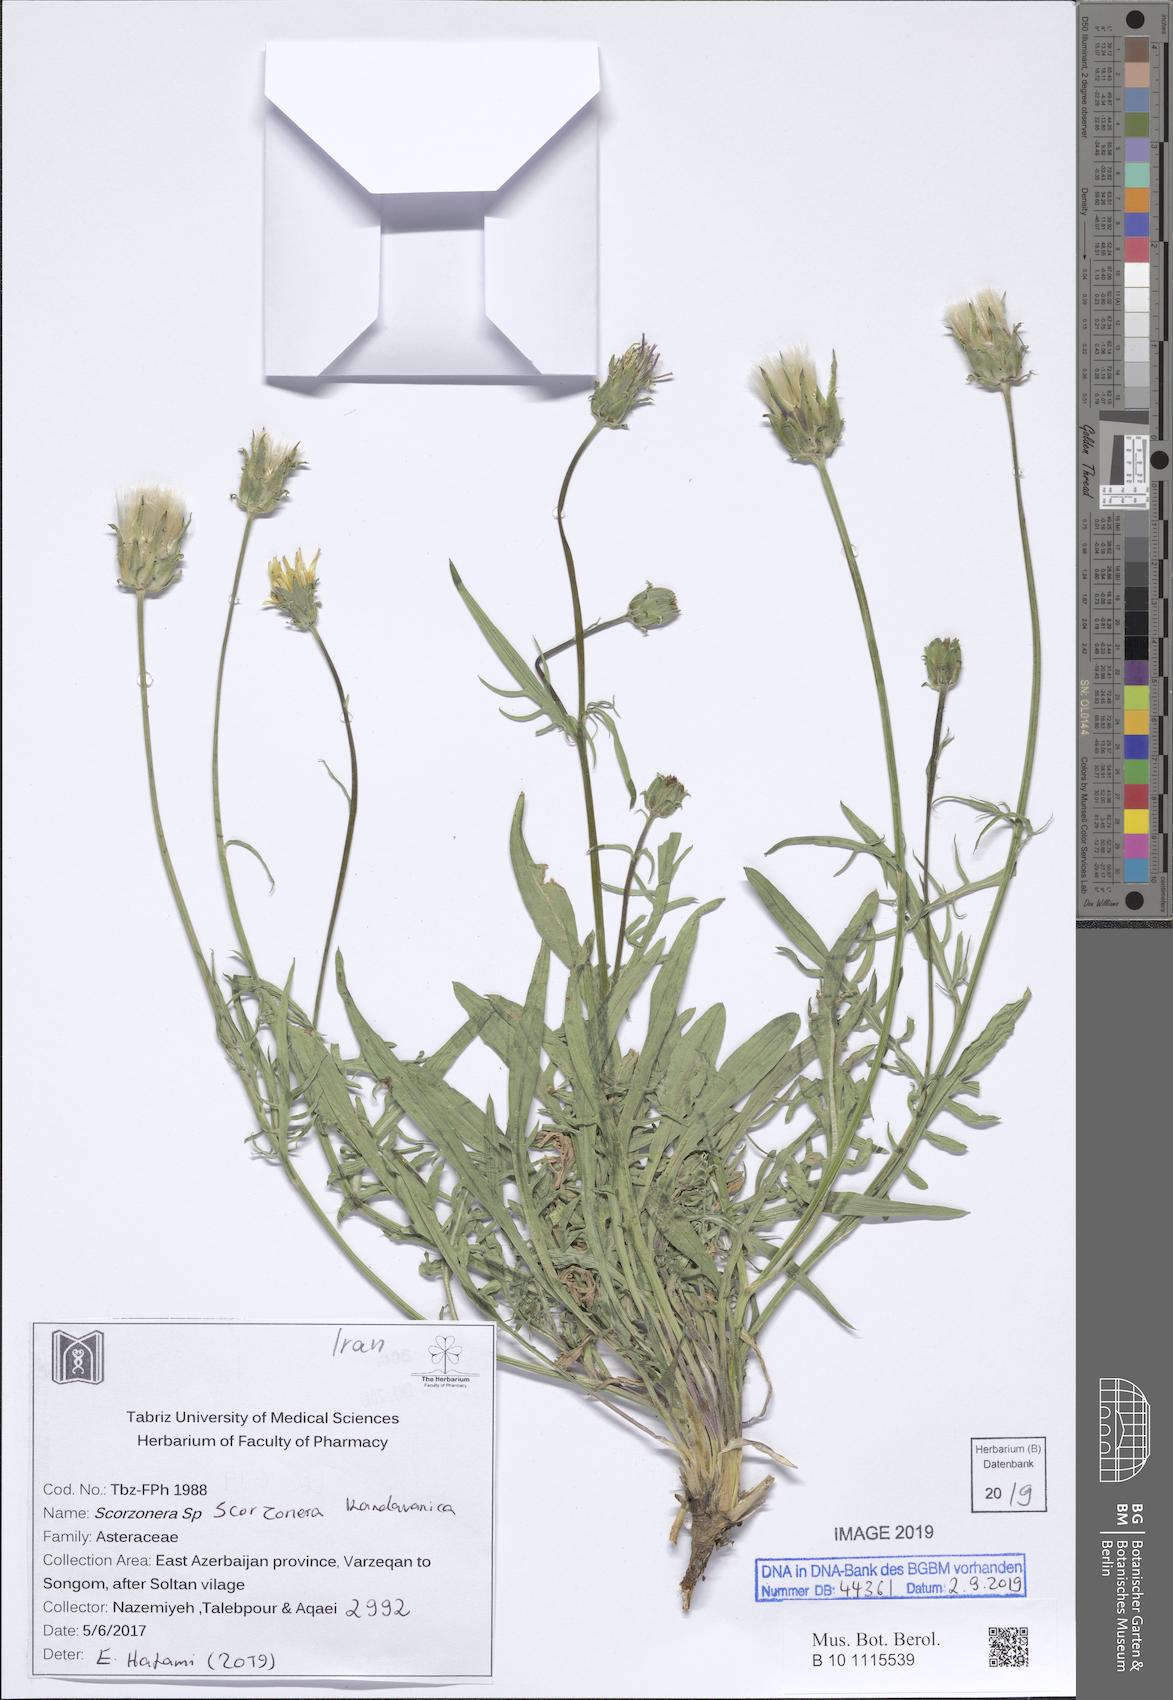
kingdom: Plantae
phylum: Tracheophyta
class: Magnoliopsida
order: Asterales
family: Asteraceae
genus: Scorzonera
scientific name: Scorzonera kandavanica
